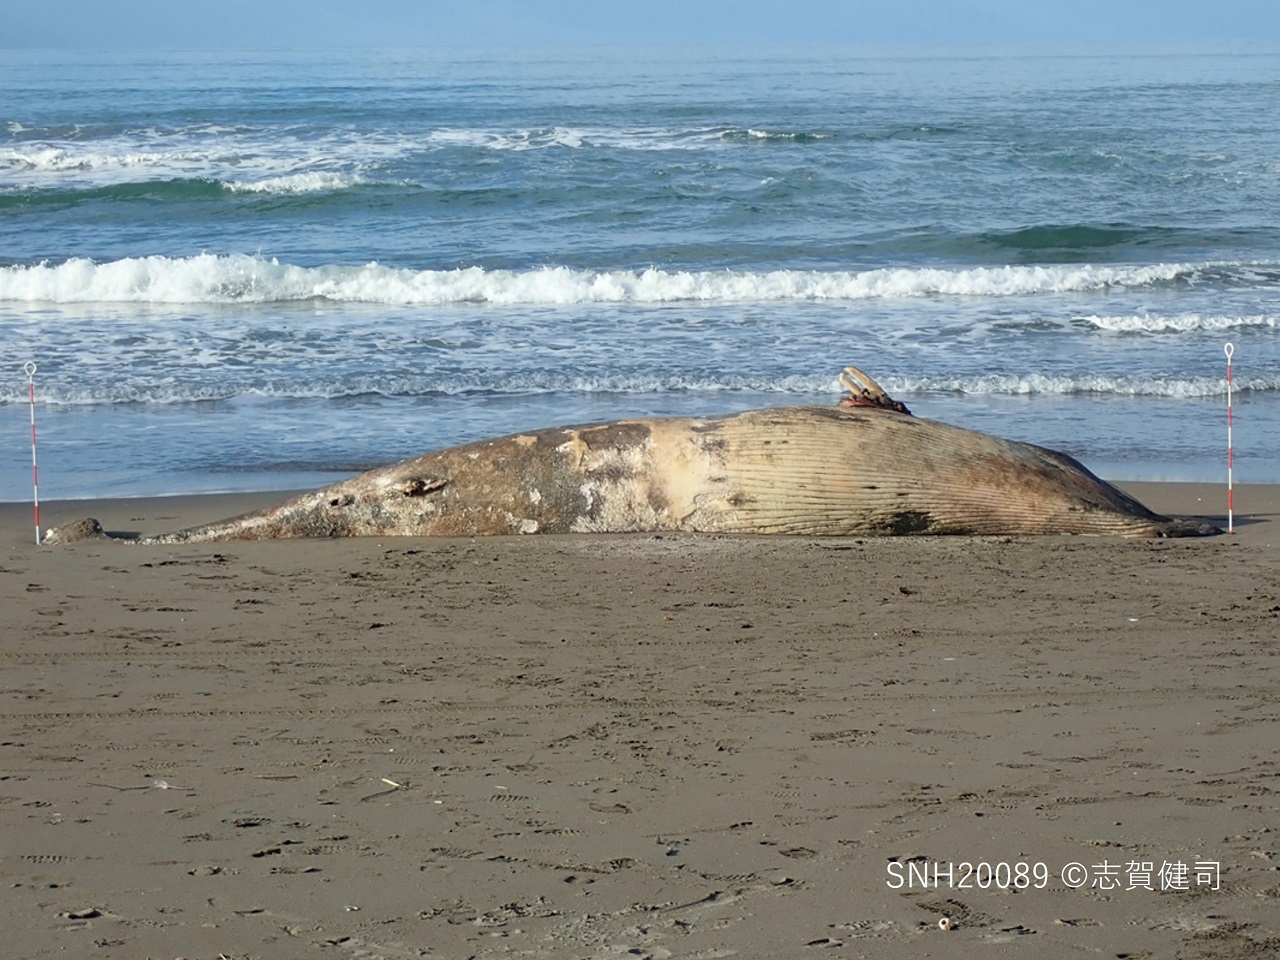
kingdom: Animalia
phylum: Chordata
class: Mammalia
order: Cetacea
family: Balaenopteridae
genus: Balaenoptera
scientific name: Balaenoptera acutorostrata
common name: Minke whale
